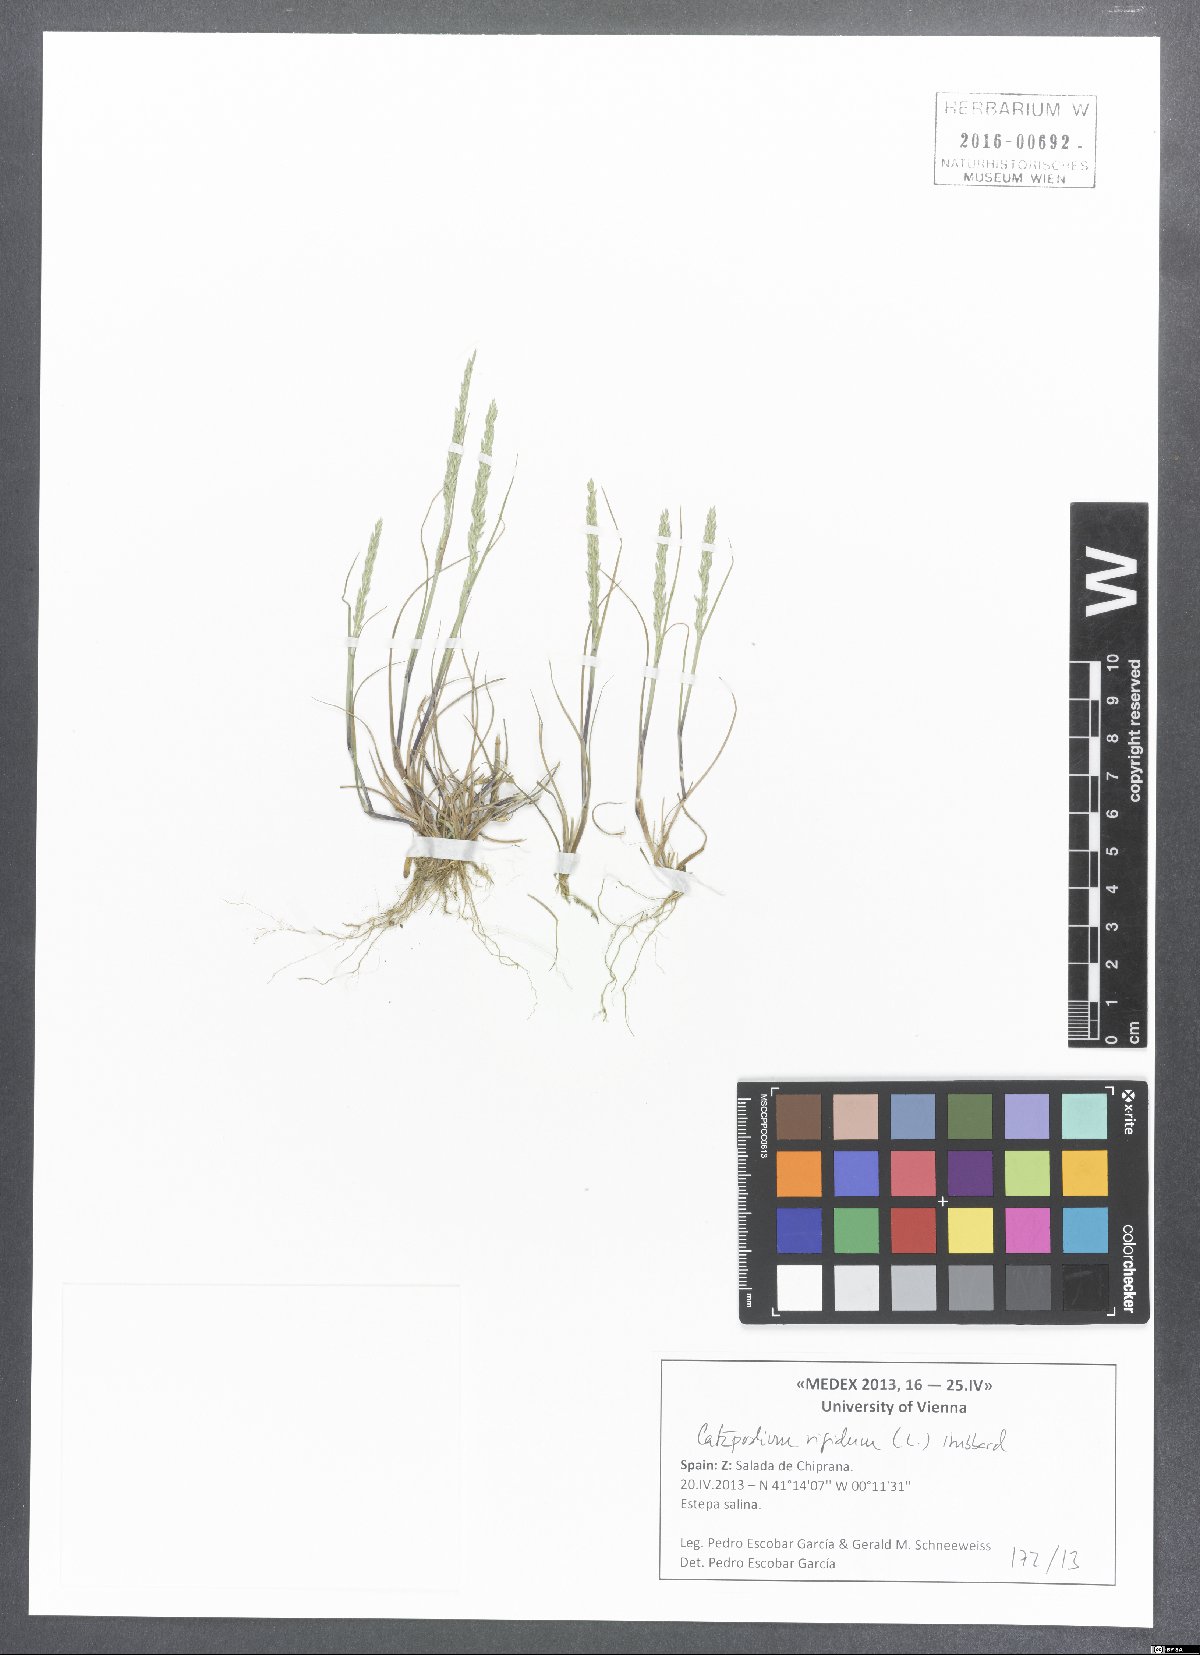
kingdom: Plantae
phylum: Tracheophyta
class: Liliopsida
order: Poales
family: Poaceae
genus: Catapodium
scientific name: Catapodium rigidum
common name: Fern-grass
